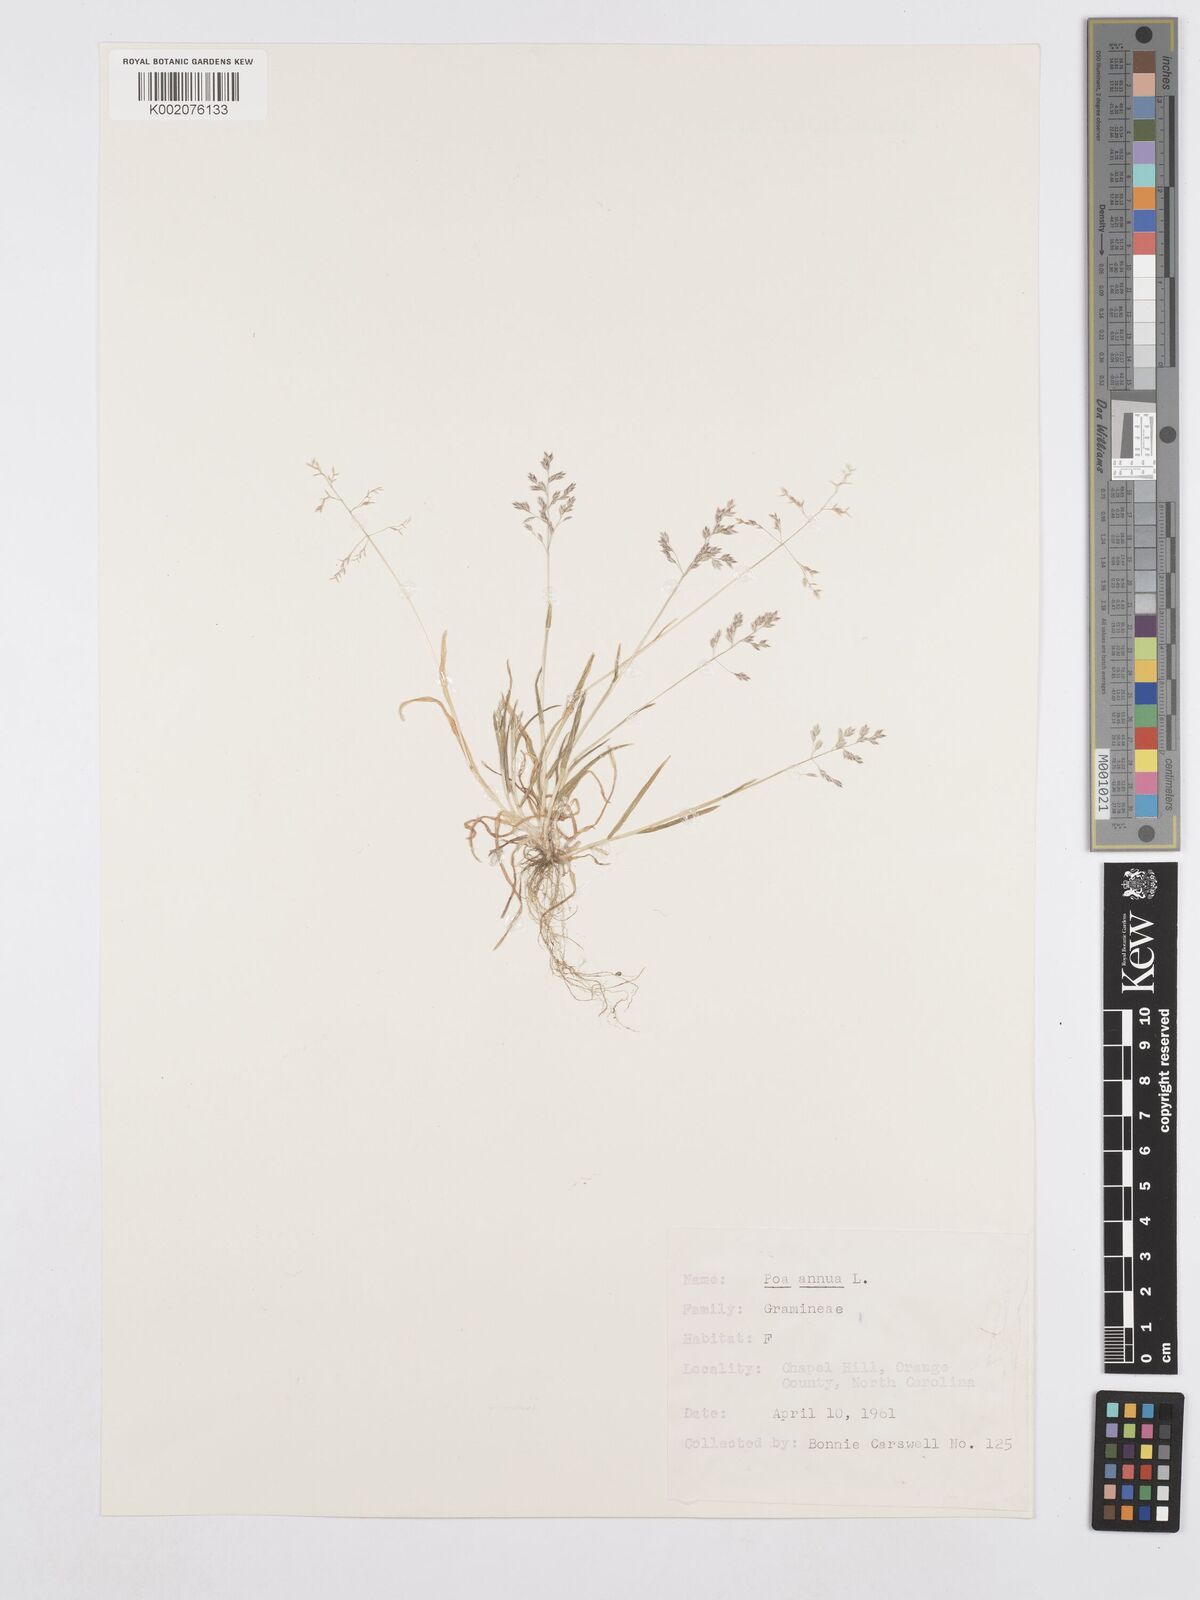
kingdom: Plantae
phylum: Tracheophyta
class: Liliopsida
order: Poales
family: Poaceae
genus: Poa
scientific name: Poa annua
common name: Annual bluegrass
